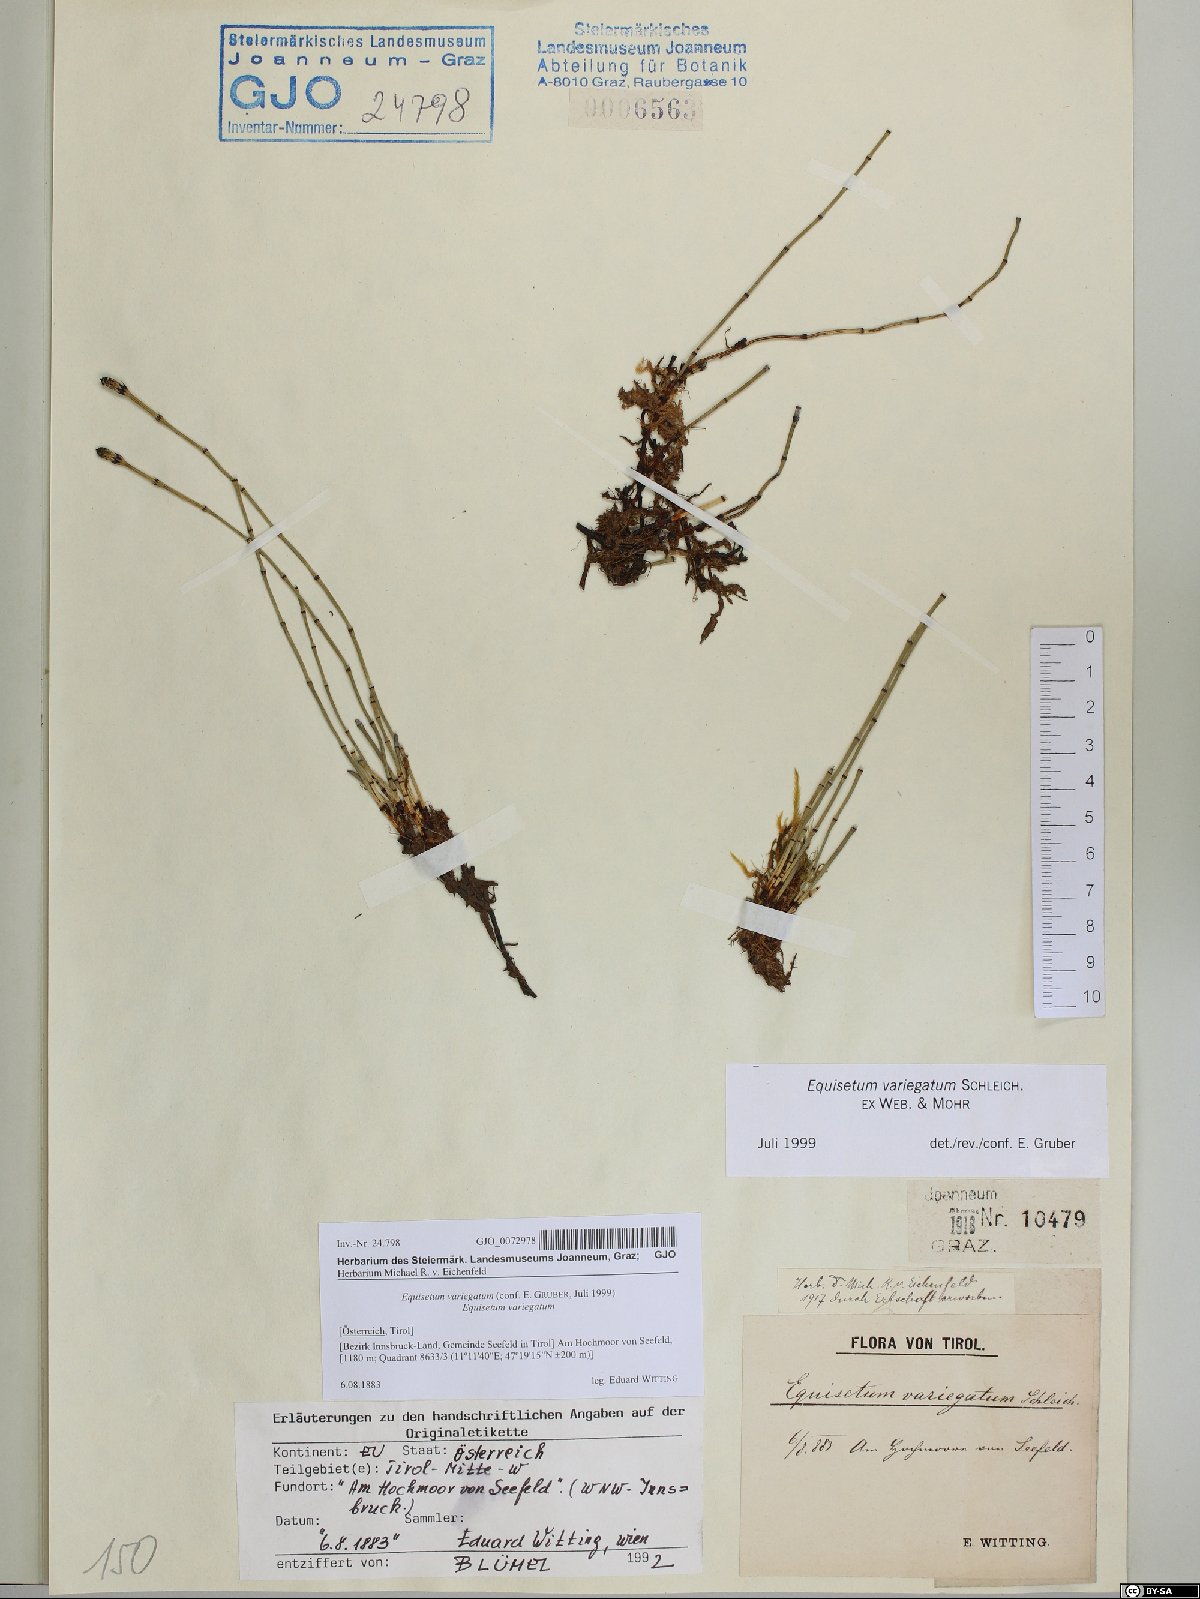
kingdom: Plantae
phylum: Tracheophyta
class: Polypodiopsida
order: Equisetales
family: Equisetaceae
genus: Equisetum
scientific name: Equisetum variegatum
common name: Variegated horsetail
